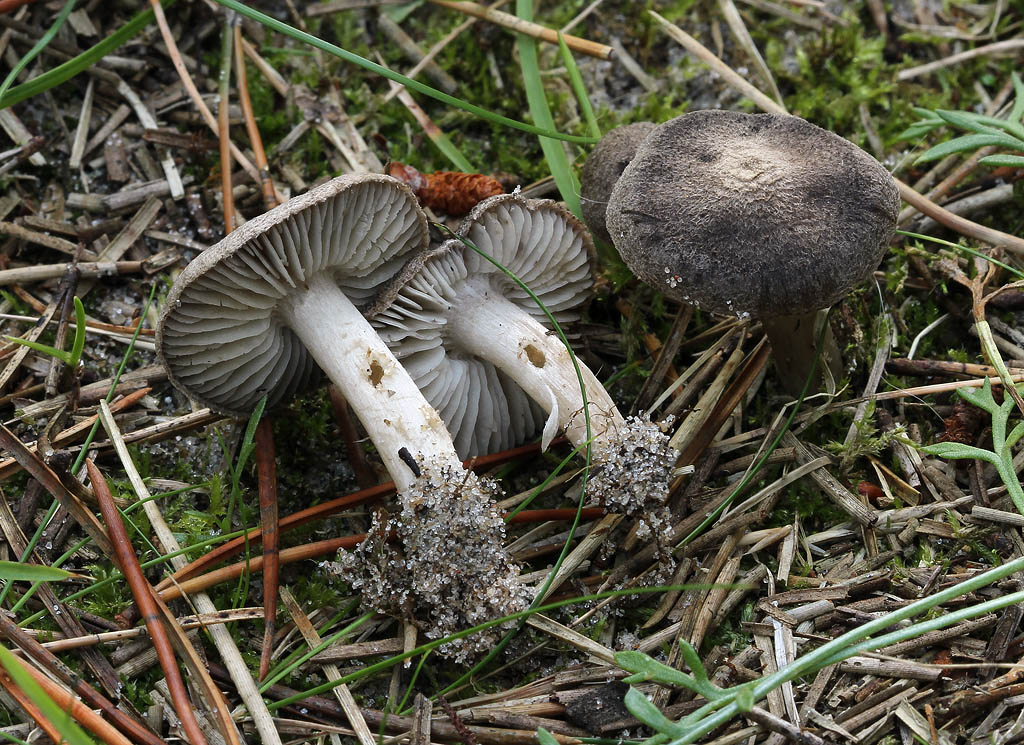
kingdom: Fungi
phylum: Basidiomycota
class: Agaricomycetes
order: Agaricales
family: Tricholomataceae
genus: Tricholoma
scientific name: Tricholoma terreum
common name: jordfarvet ridderhat
